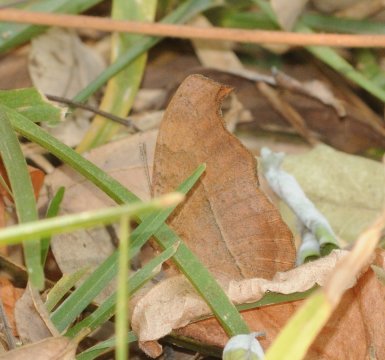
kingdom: Animalia
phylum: Arthropoda
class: Insecta
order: Lepidoptera
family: Nymphalidae
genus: Precis
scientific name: Precis
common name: Commodores
